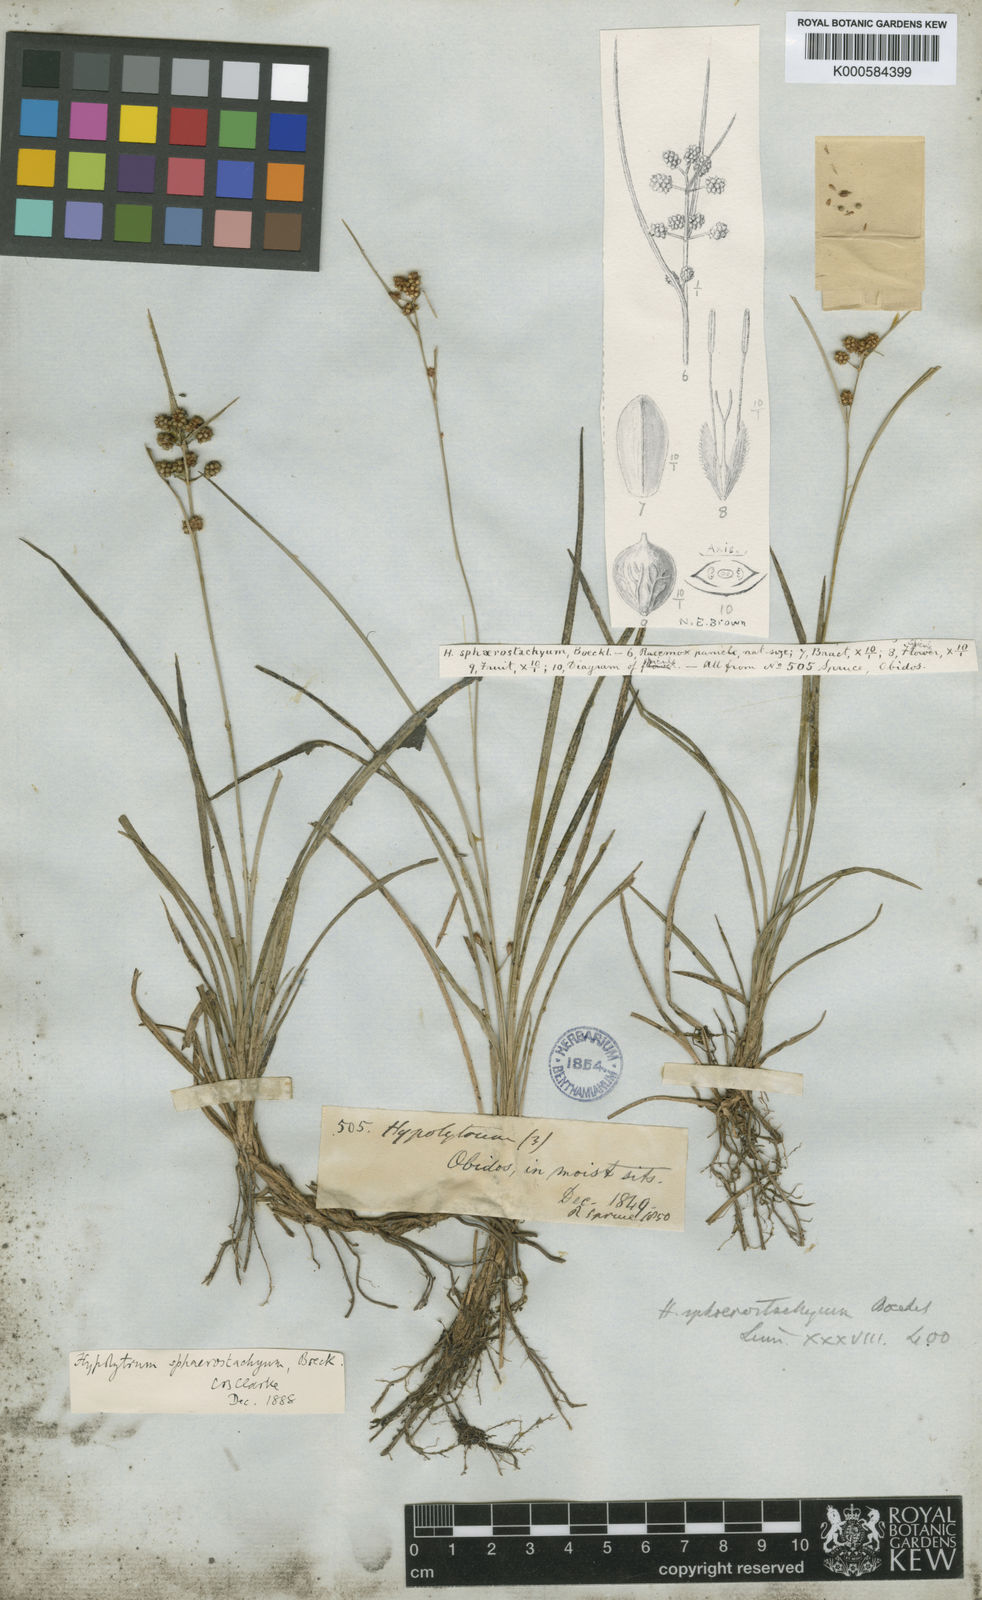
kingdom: Plantae
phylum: Tracheophyta
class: Liliopsida
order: Poales
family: Cyperaceae
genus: Hypolytrum
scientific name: Hypolytrum sphaerostachyum
